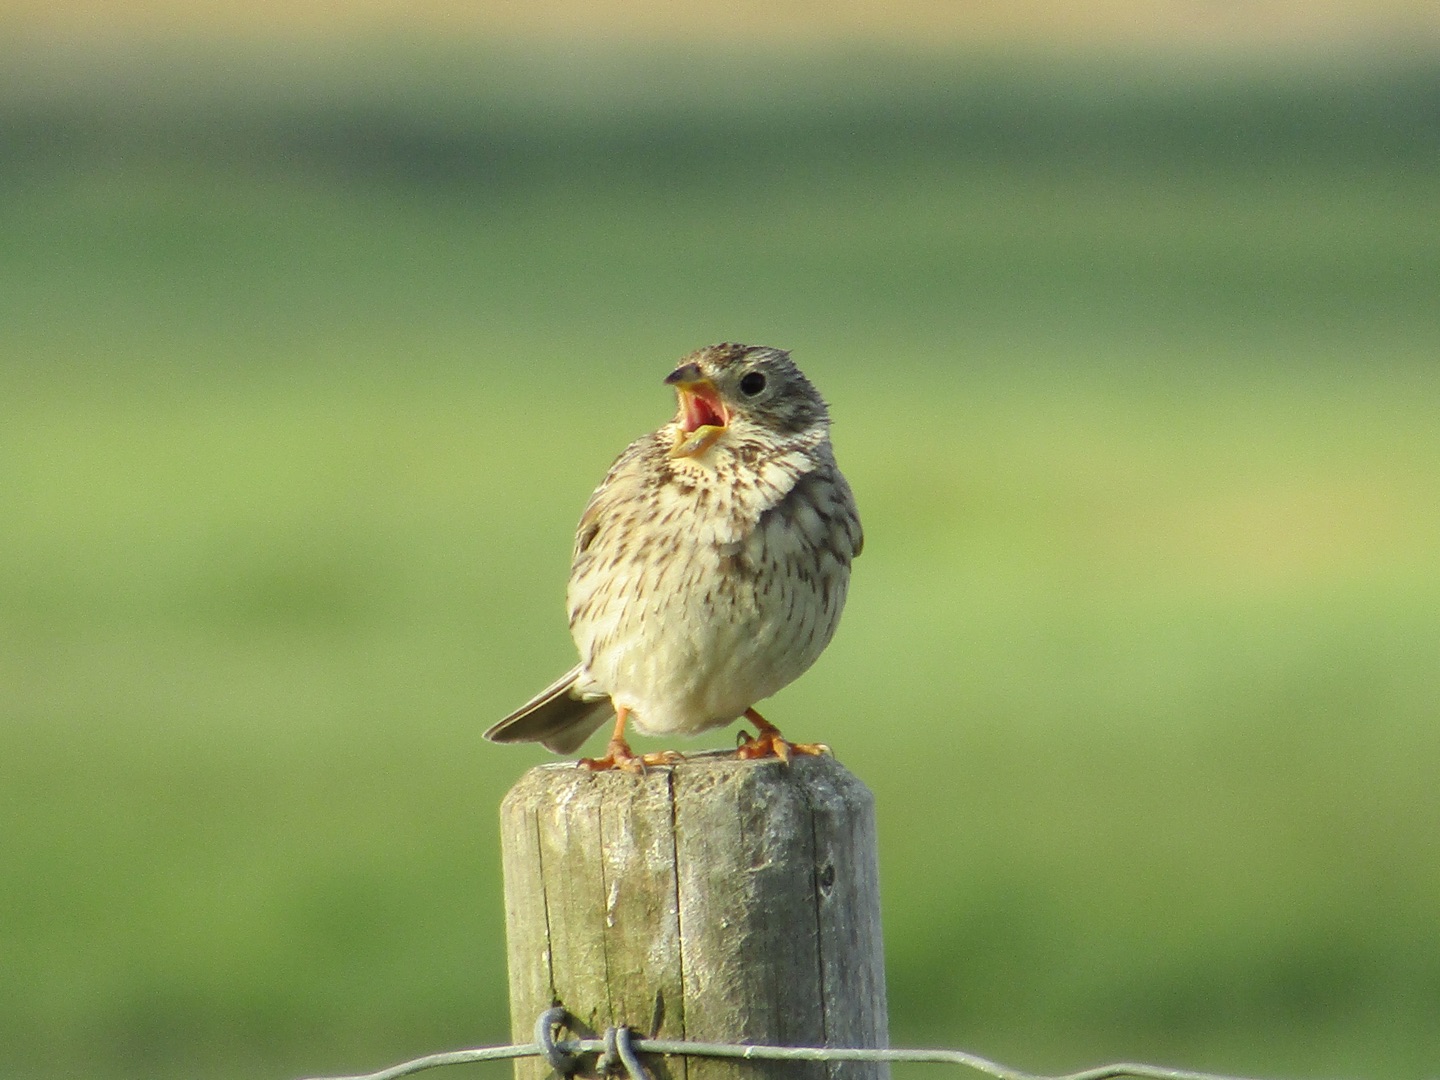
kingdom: Animalia
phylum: Chordata
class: Aves
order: Passeriformes
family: Emberizidae
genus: Emberiza
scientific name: Emberiza calandra
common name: Bomlærke
